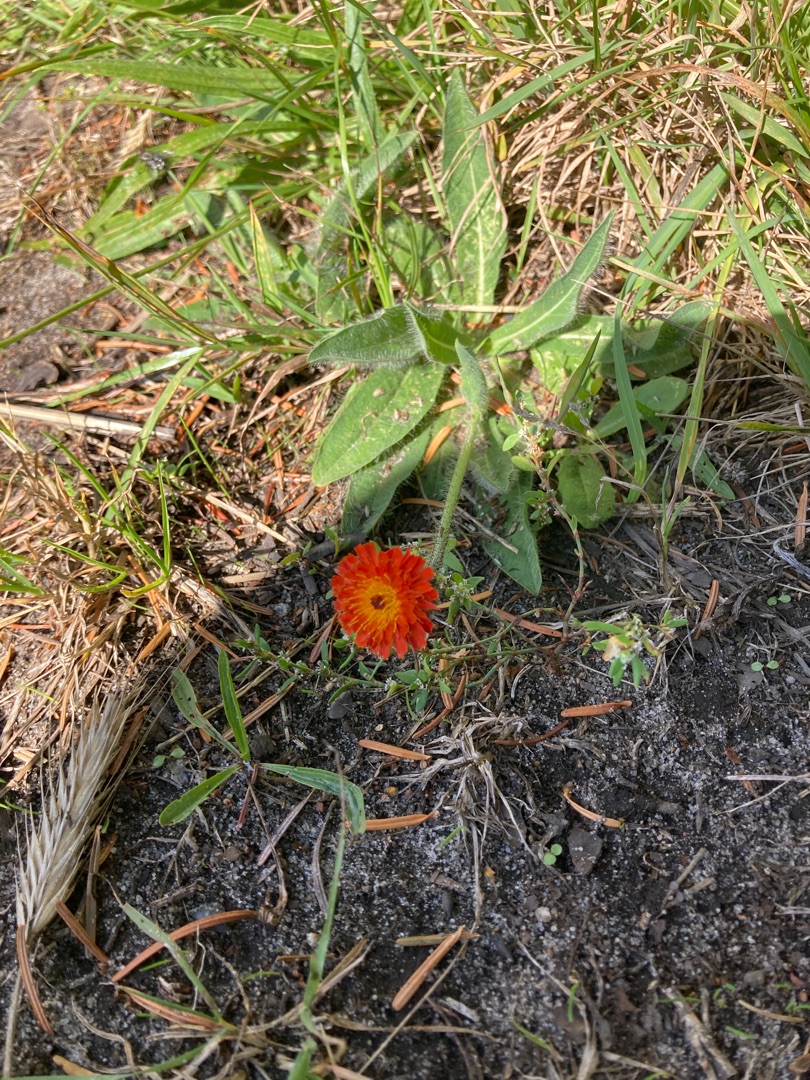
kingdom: Plantae
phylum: Tracheophyta
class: Magnoliopsida
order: Asterales
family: Asteraceae
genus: Pilosella
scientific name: Pilosella aurantiaca
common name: Pomerans-høgeurt
